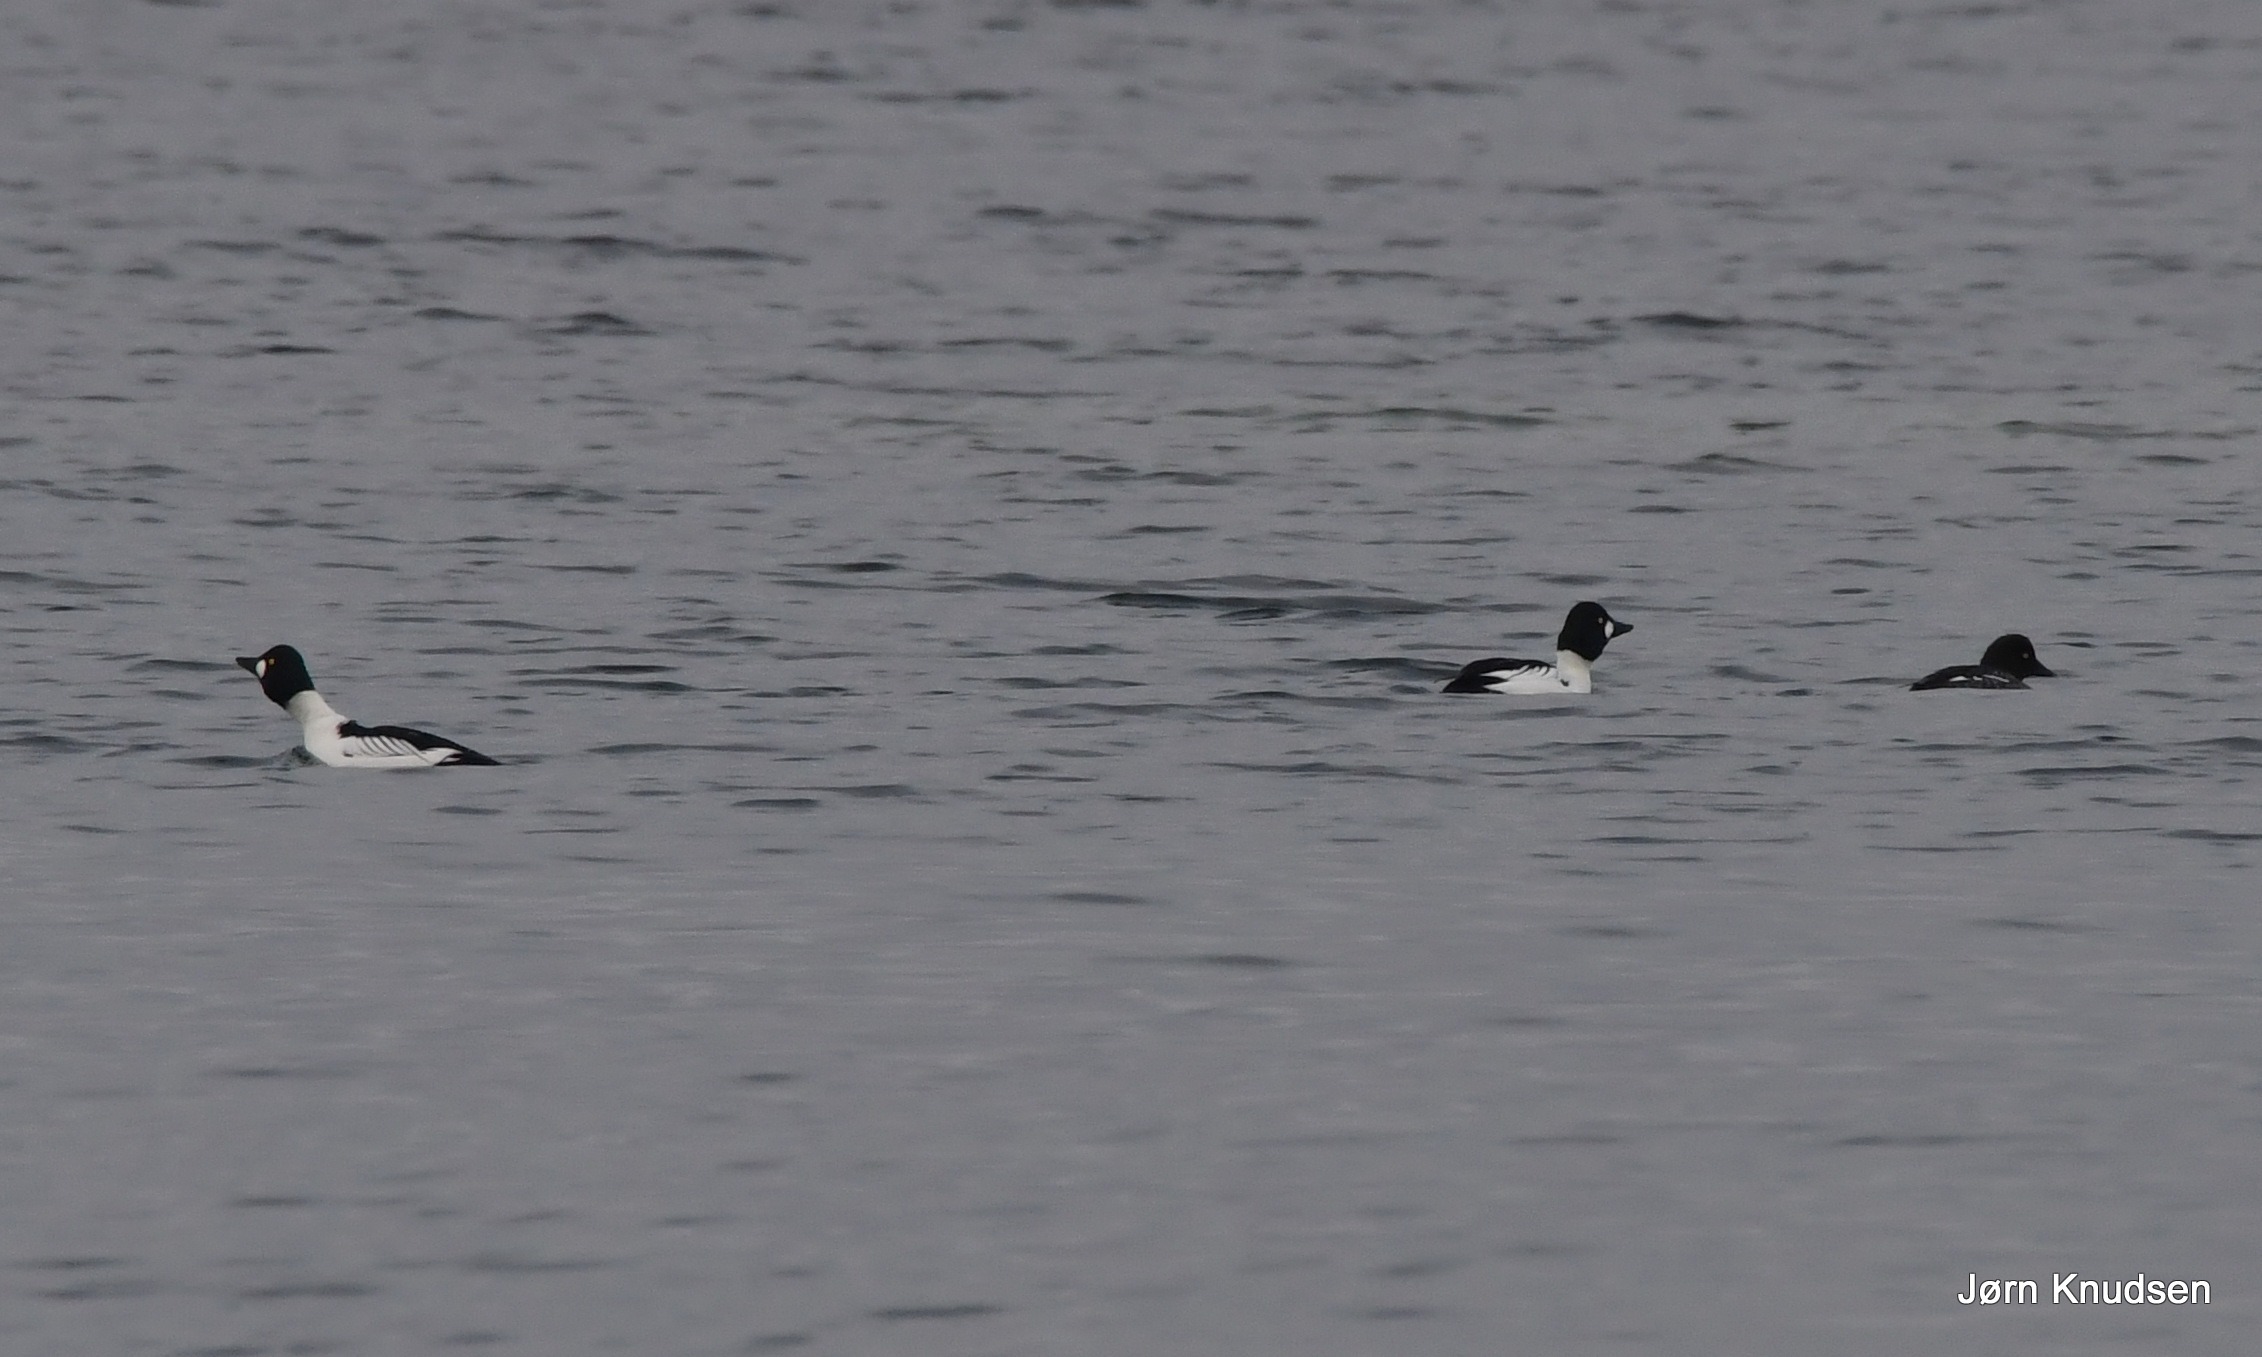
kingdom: Animalia
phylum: Chordata
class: Aves
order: Anseriformes
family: Anatidae
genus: Bucephala
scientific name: Bucephala clangula
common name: Hvinand
